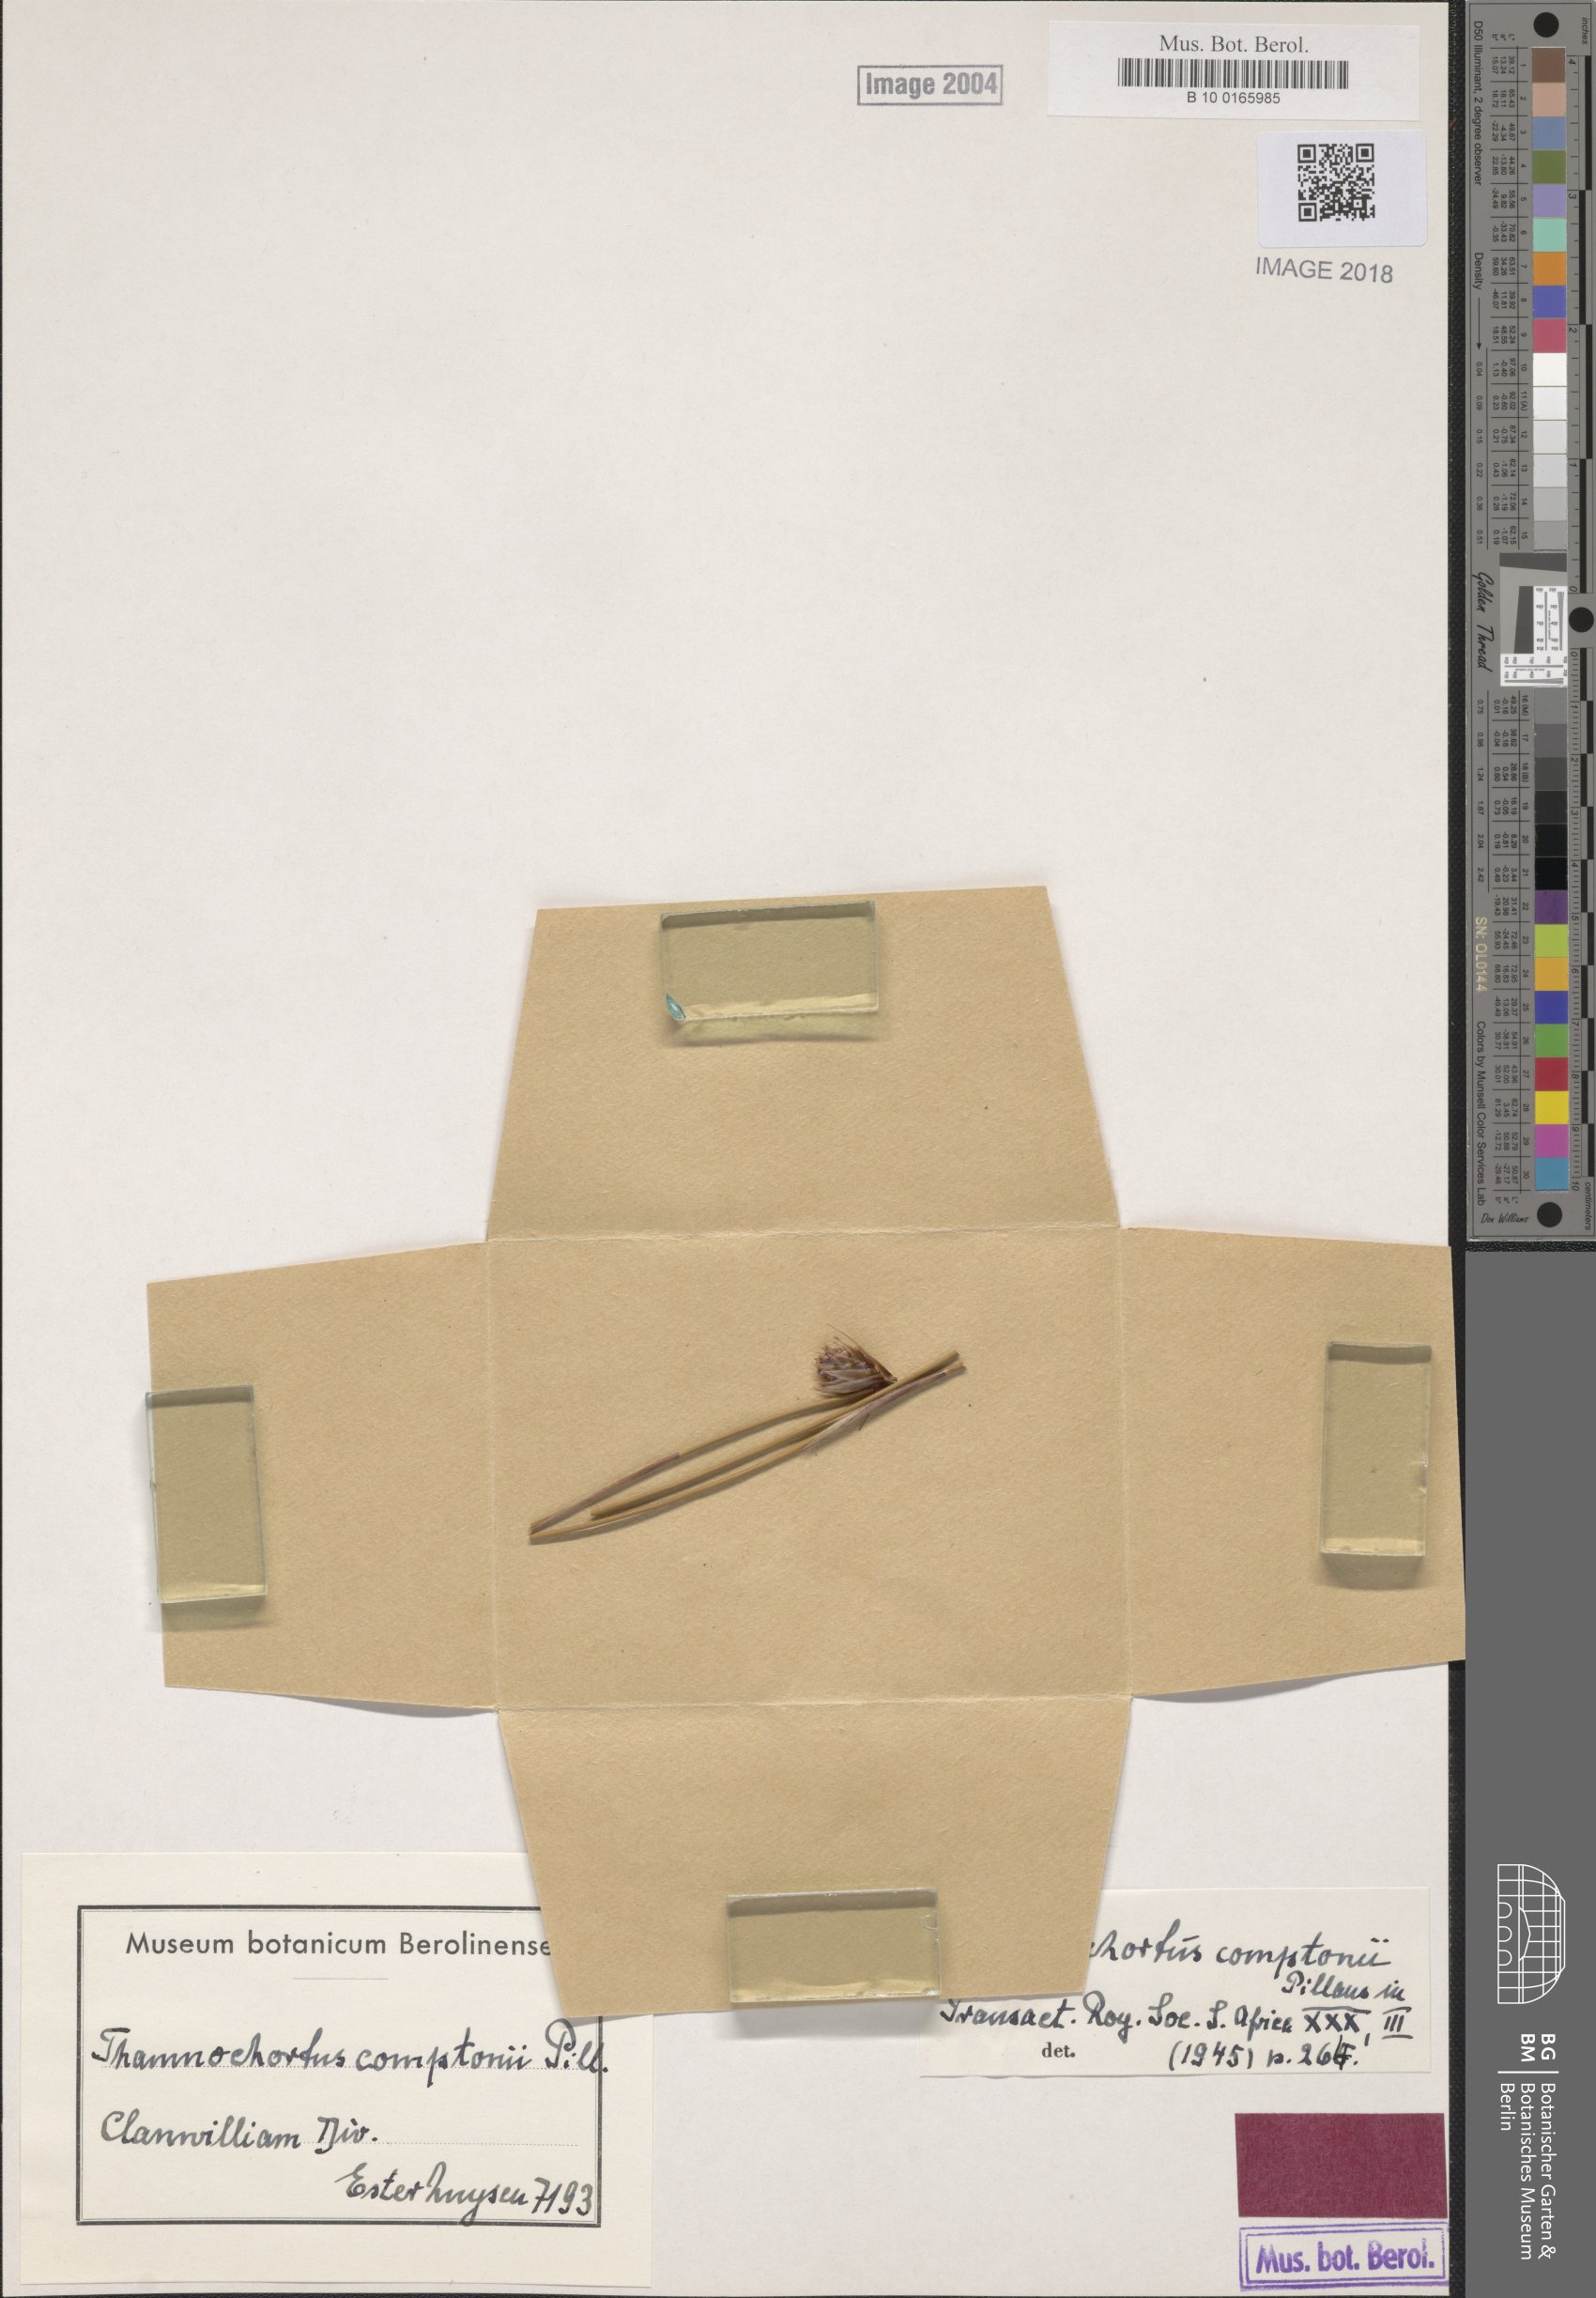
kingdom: Plantae
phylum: Tracheophyta
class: Liliopsida
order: Poales
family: Restionaceae
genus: Thamnochortus
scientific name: Thamnochortus platypteris
